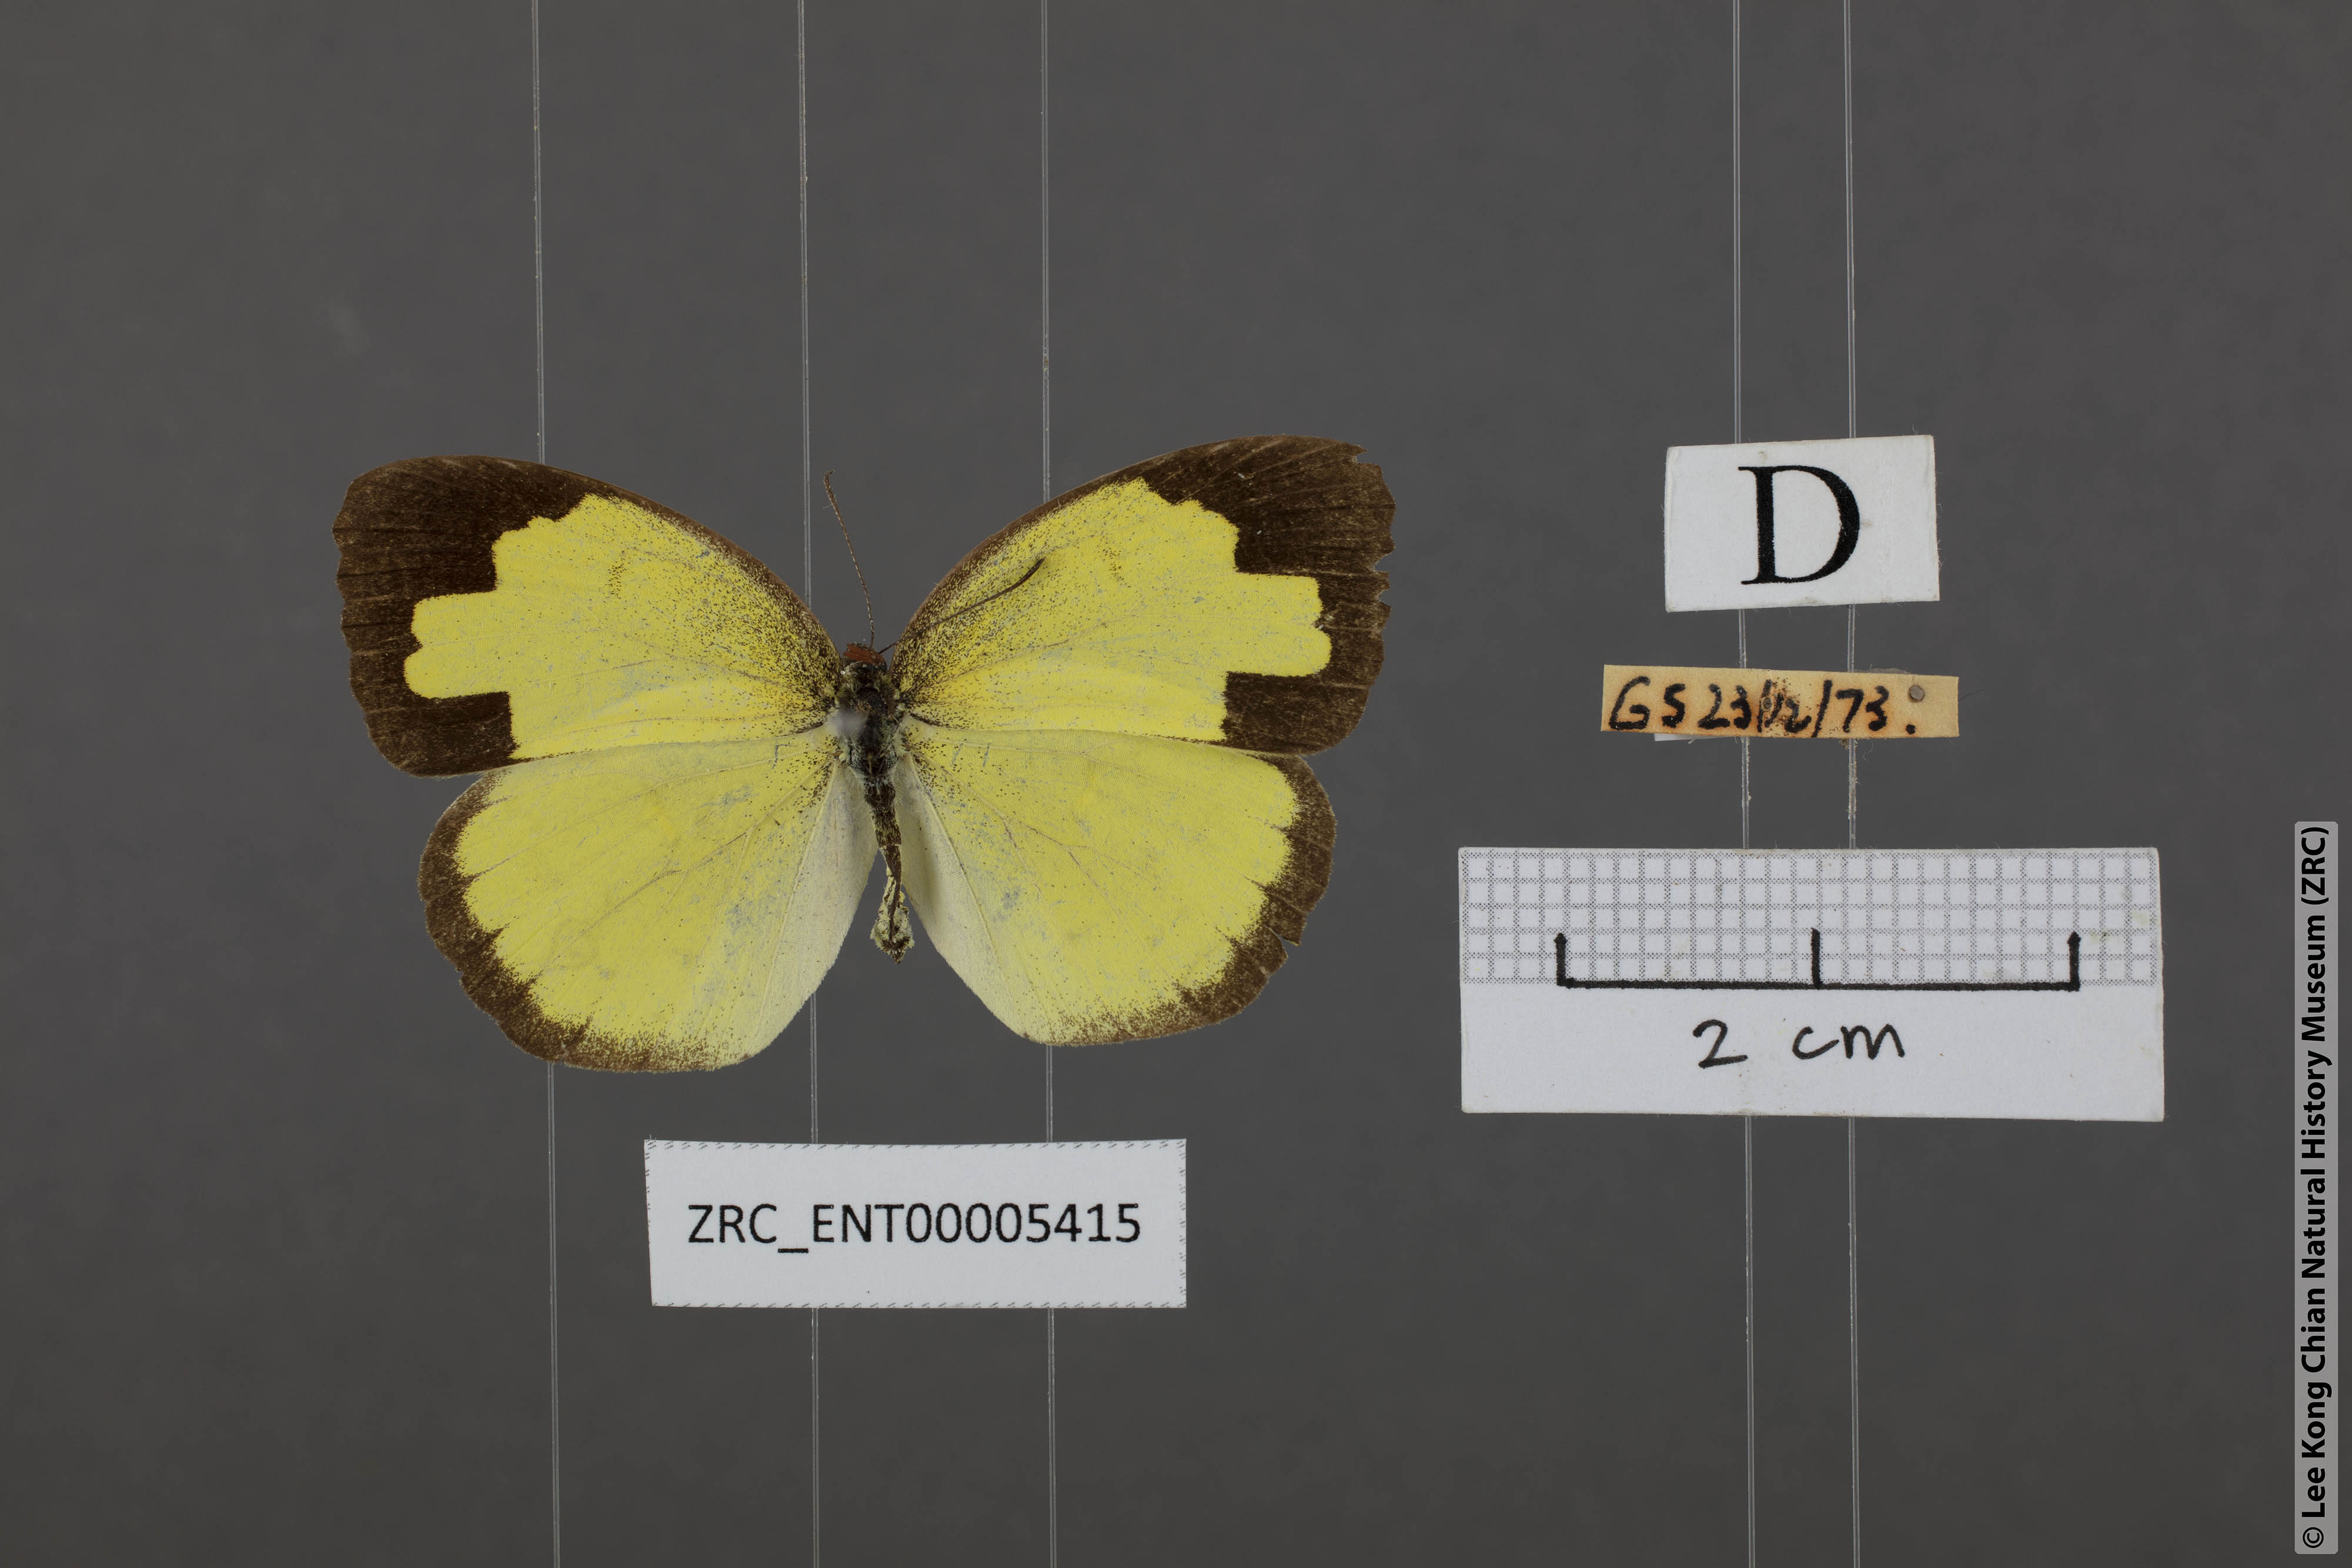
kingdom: Animalia
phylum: Arthropoda
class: Insecta
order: Lepidoptera
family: Pieridae
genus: Eurema
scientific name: Eurema andersoni
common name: One-spot yellow grass
